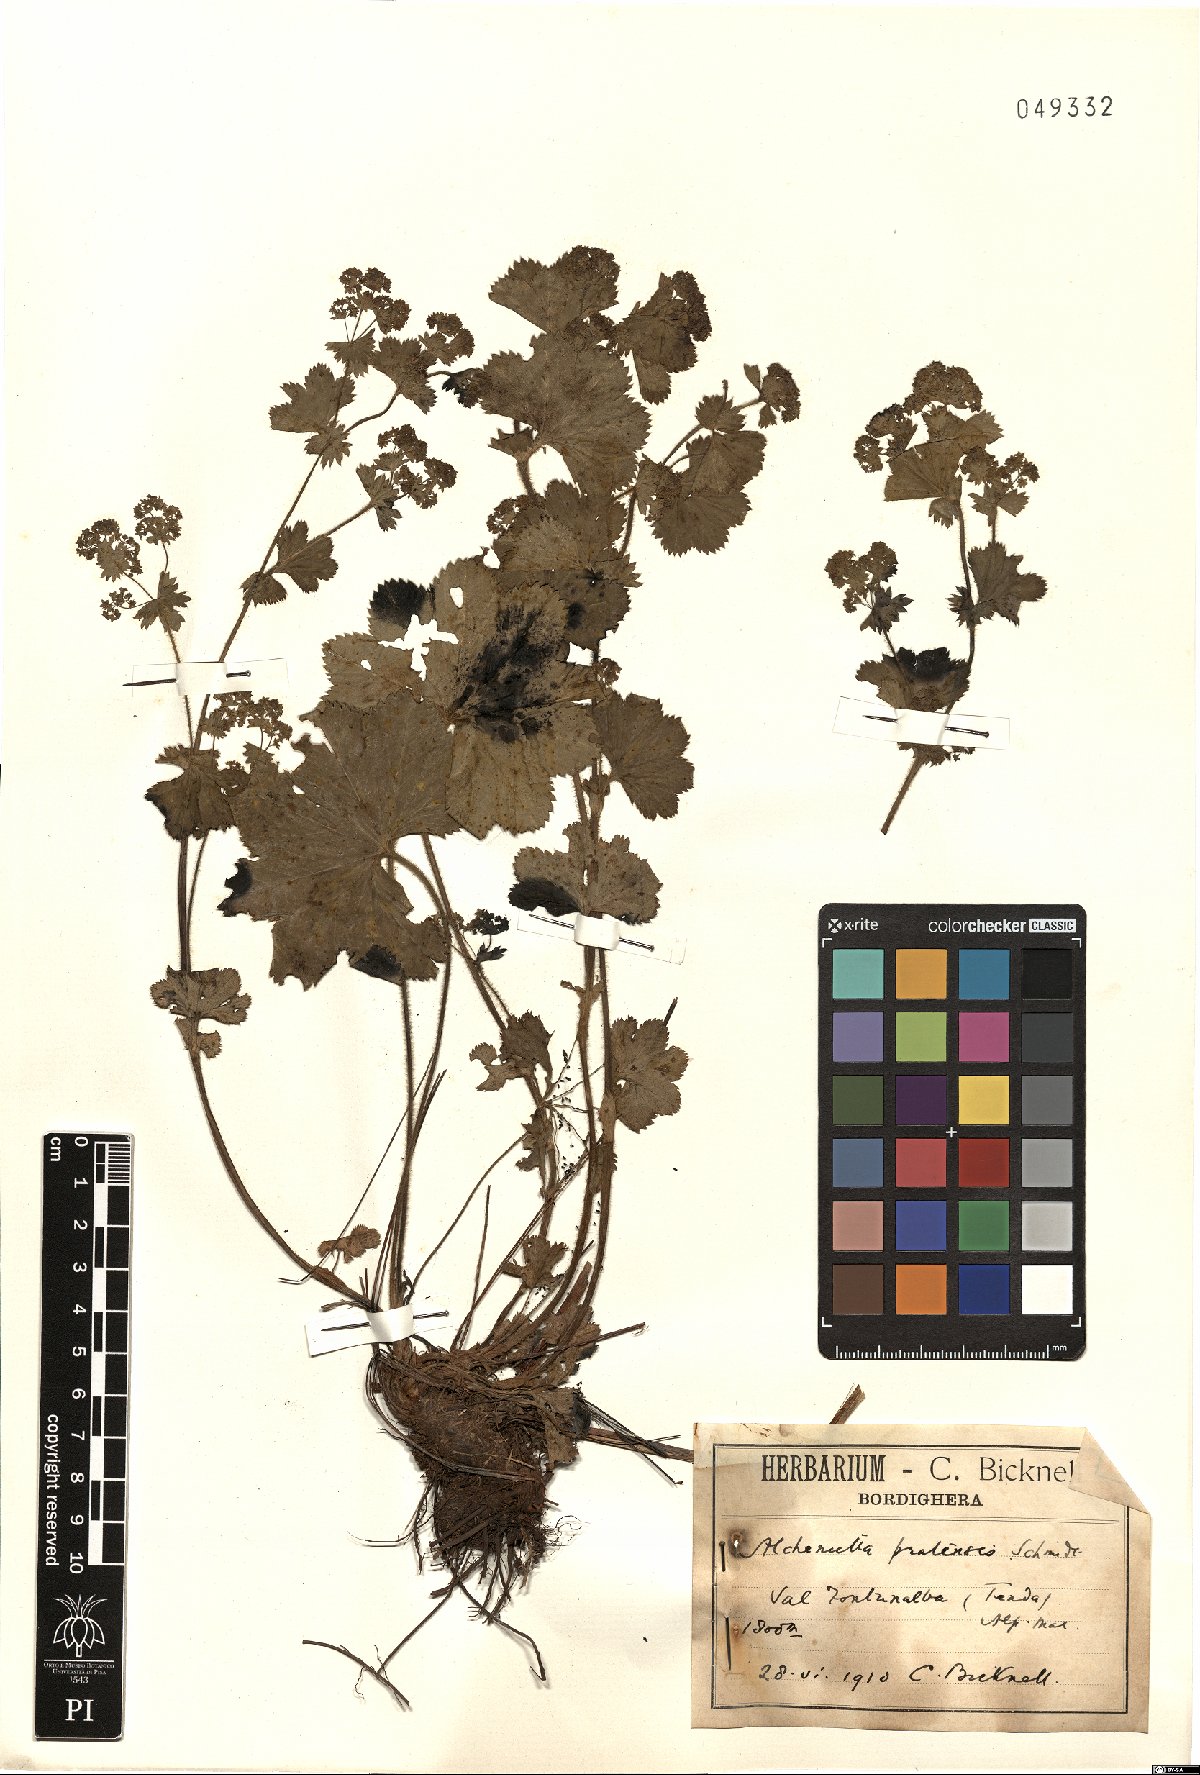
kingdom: Plantae
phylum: Tracheophyta
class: Magnoliopsida
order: Rosales
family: Rosaceae
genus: Alchemilla
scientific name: Alchemilla pratensis
